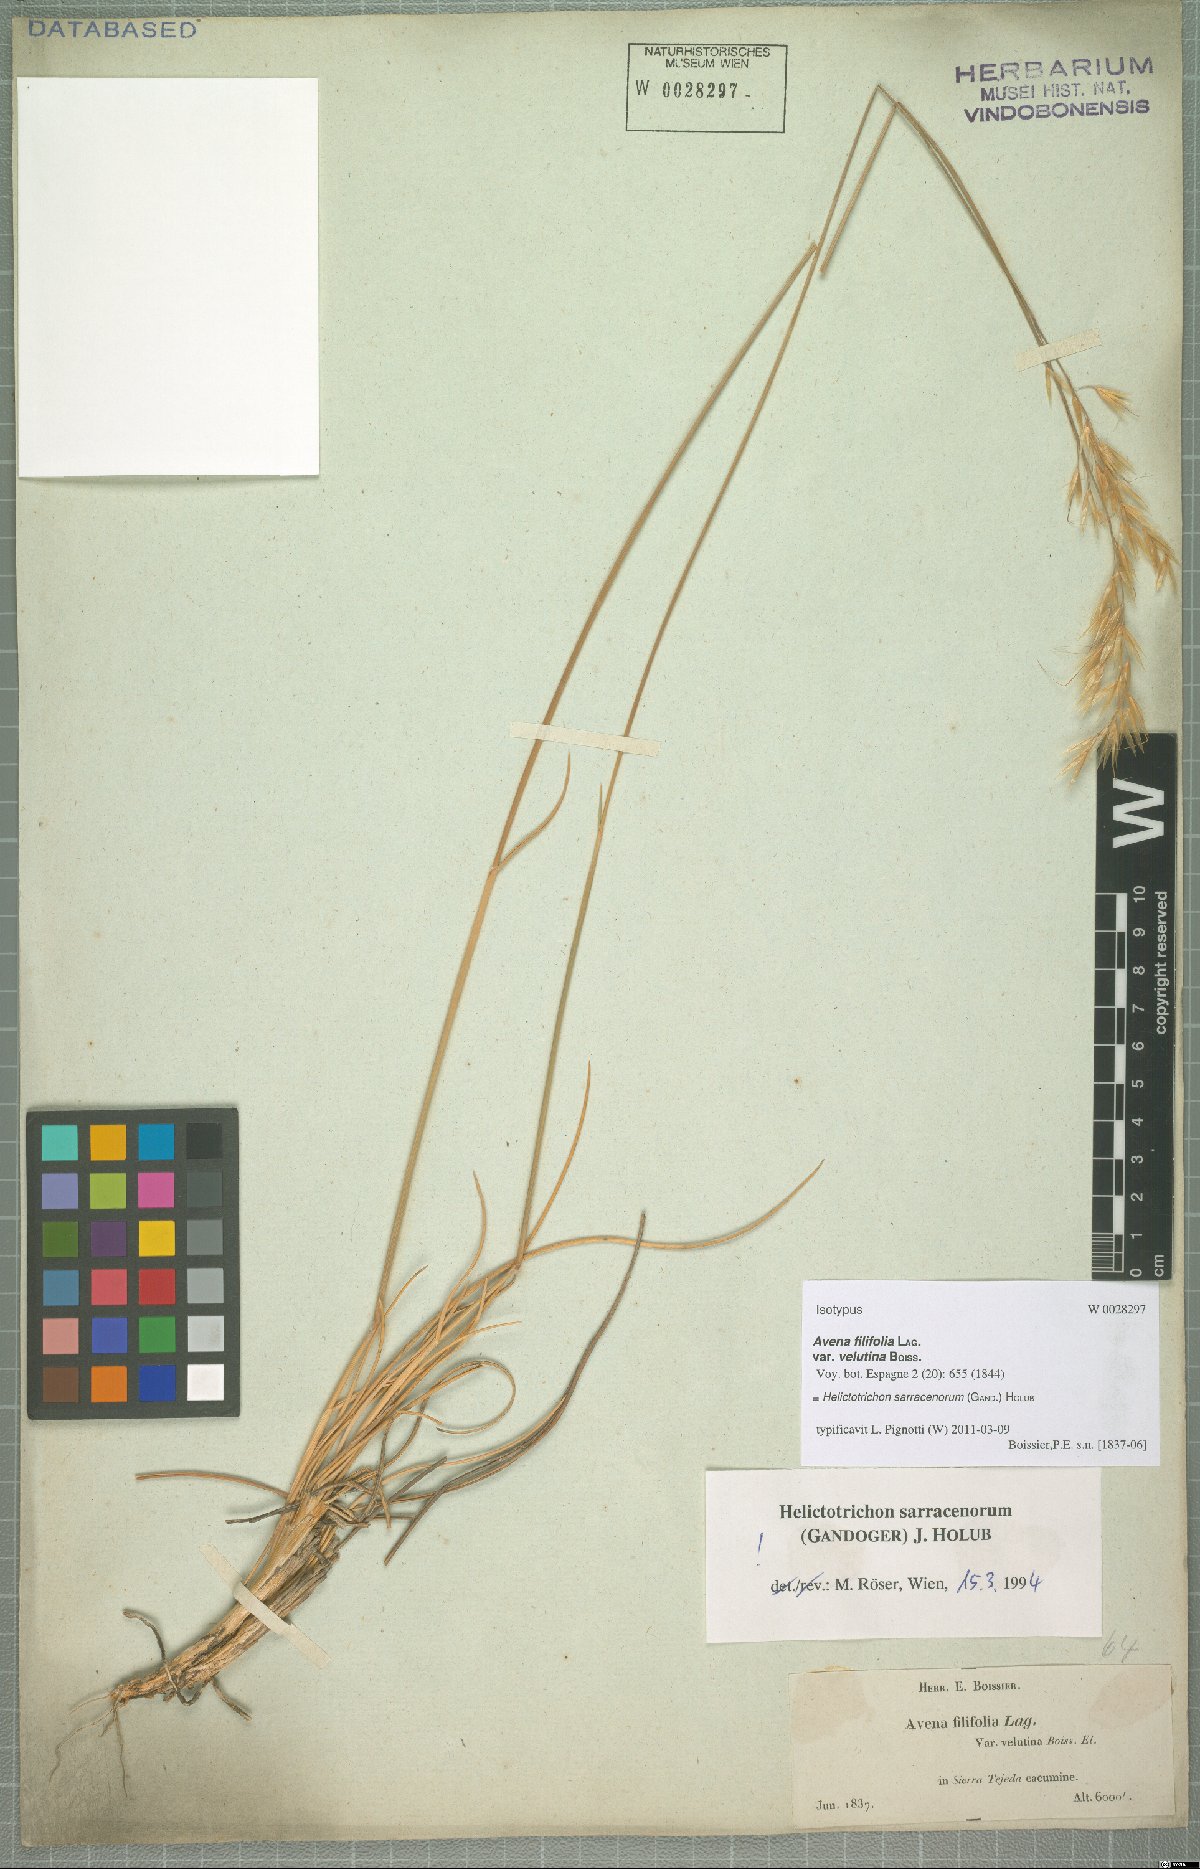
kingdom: Plantae
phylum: Tracheophyta
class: Liliopsida
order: Poales
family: Poaceae
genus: Helictotrichon
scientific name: Helictotrichon sarracenorum
